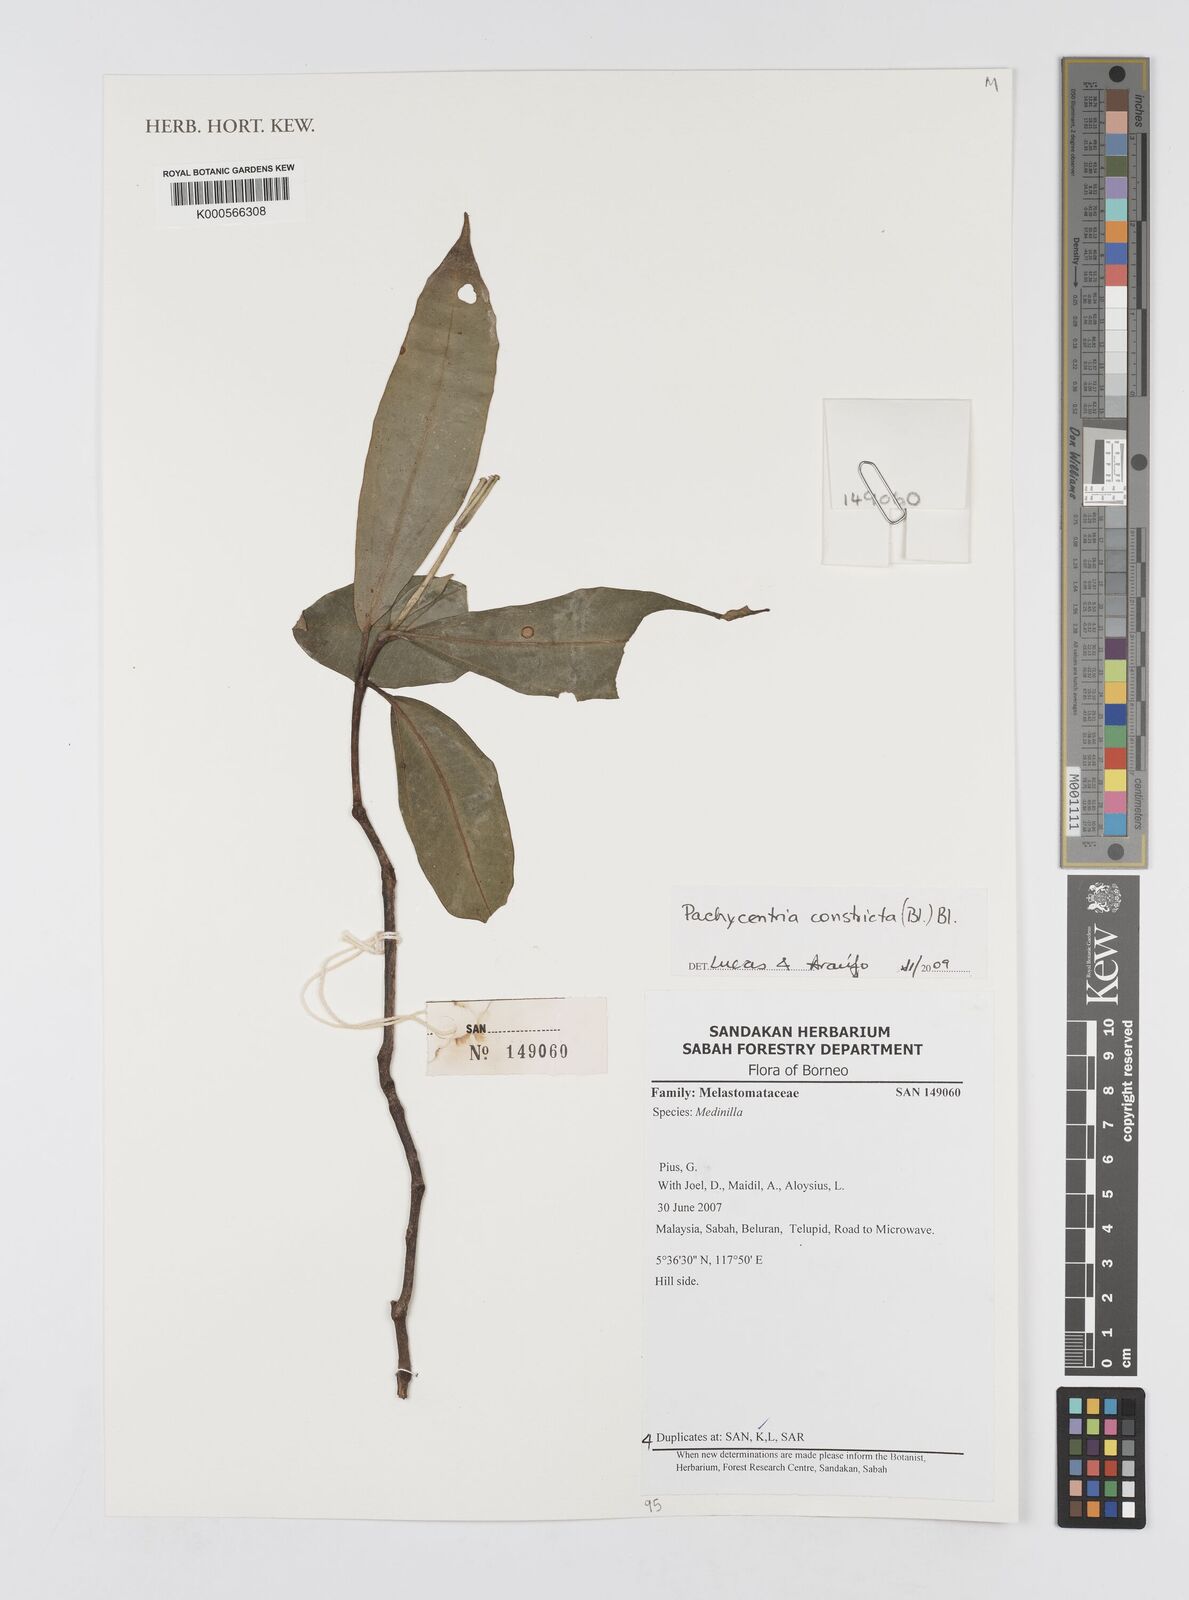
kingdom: Plantae
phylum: Tracheophyta
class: Magnoliopsida
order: Myrtales
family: Melastomataceae
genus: Pachycentria
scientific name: Pachycentria constricta
